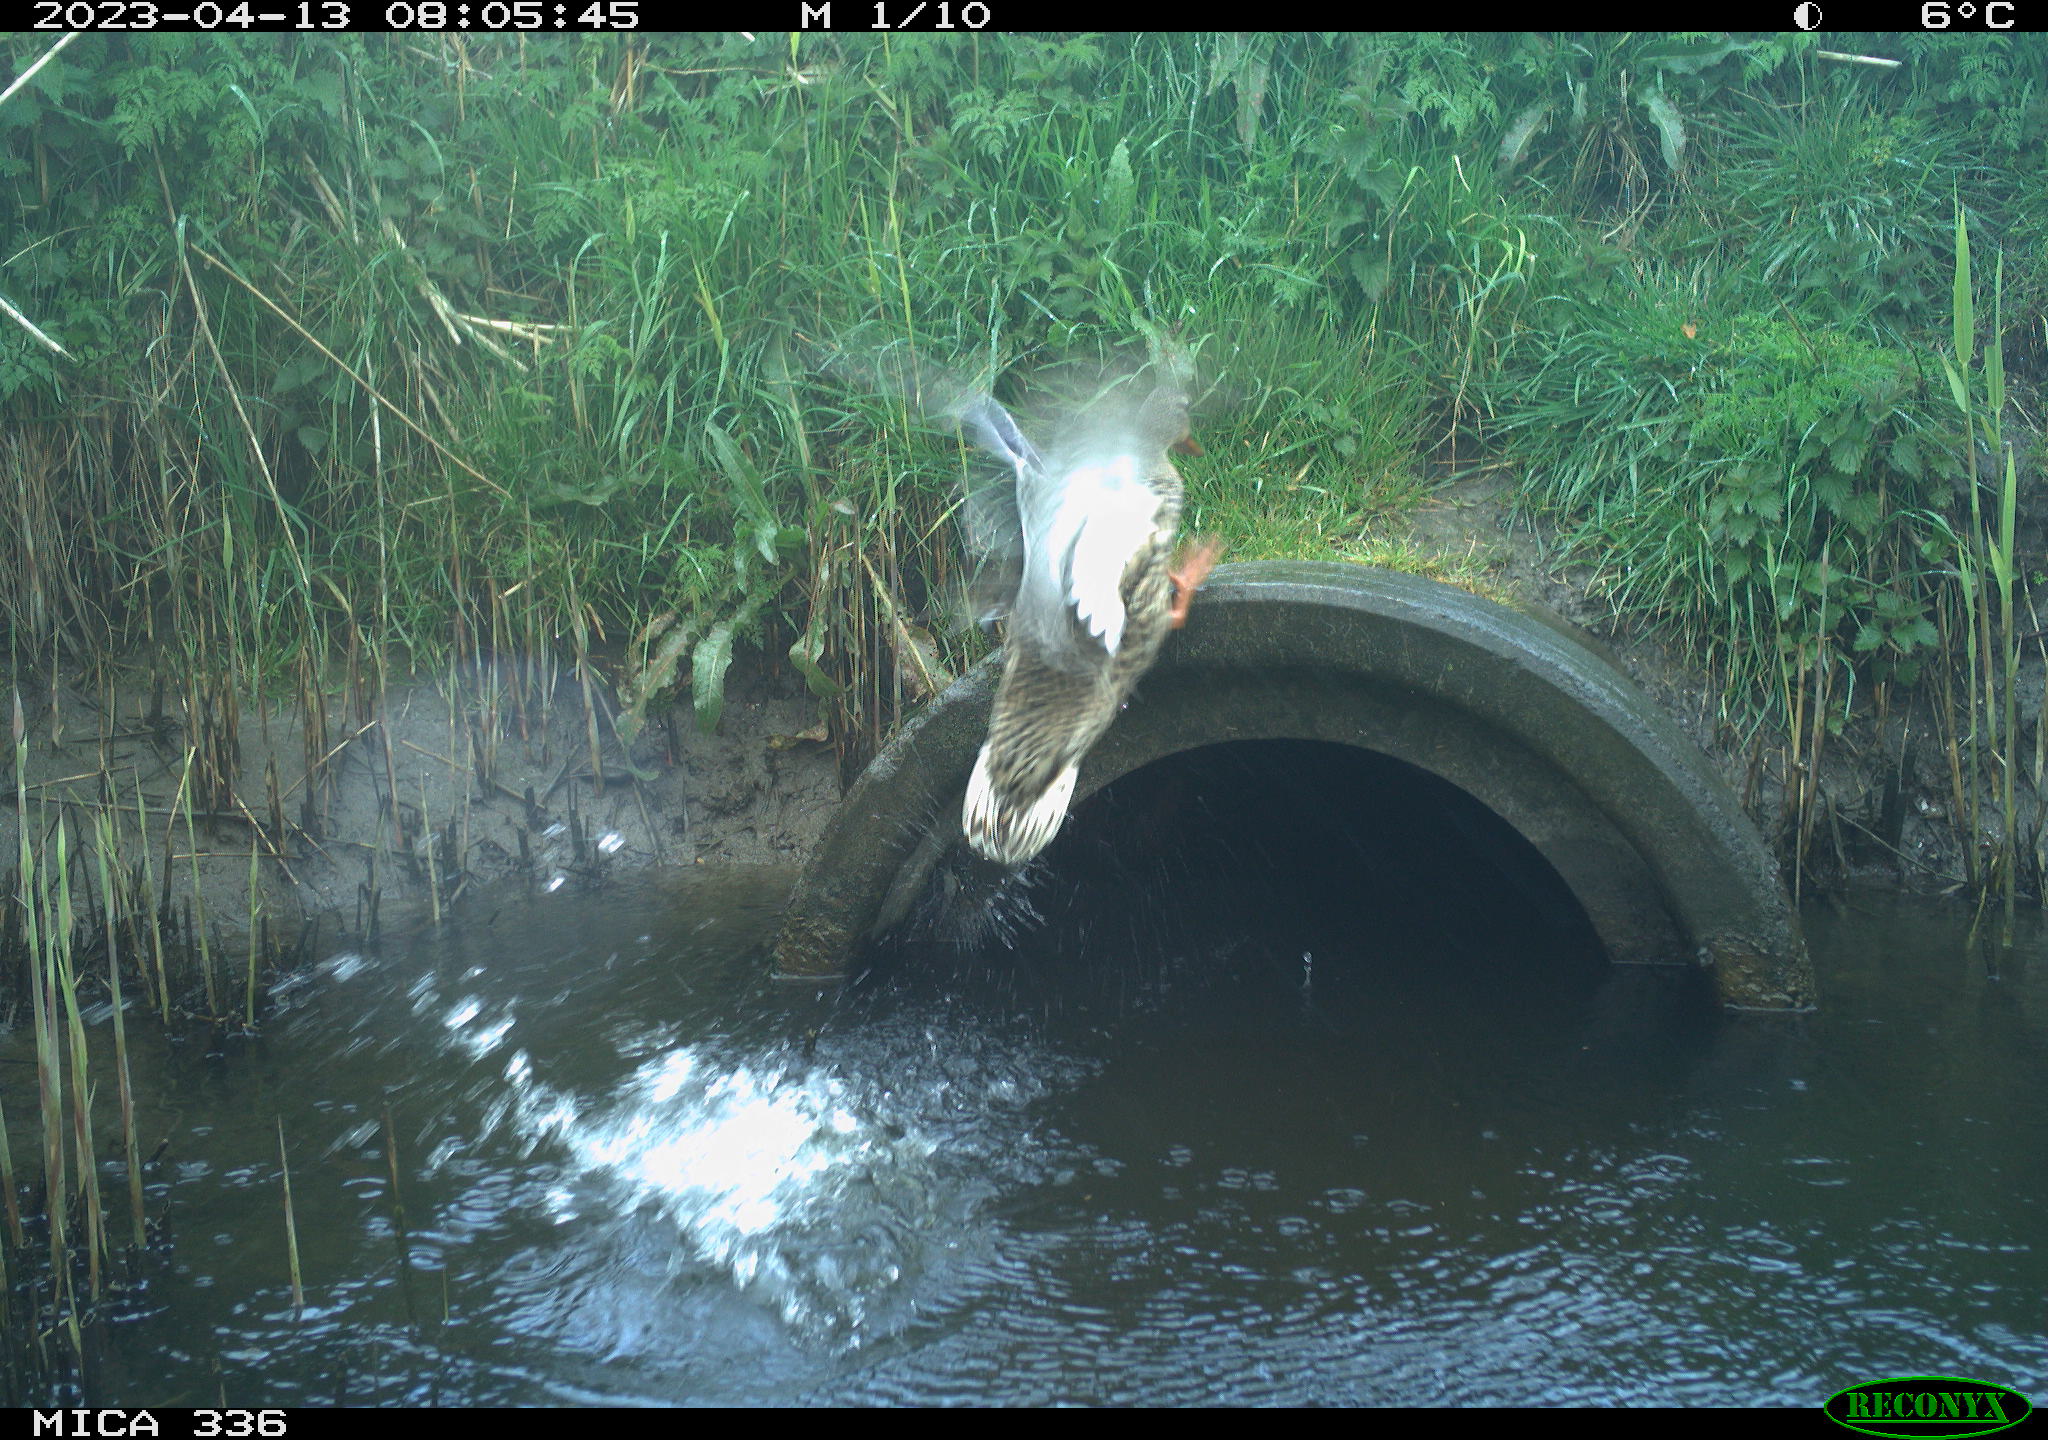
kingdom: Animalia
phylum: Chordata
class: Aves
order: Anseriformes
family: Anatidae
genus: Anas
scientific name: Anas
